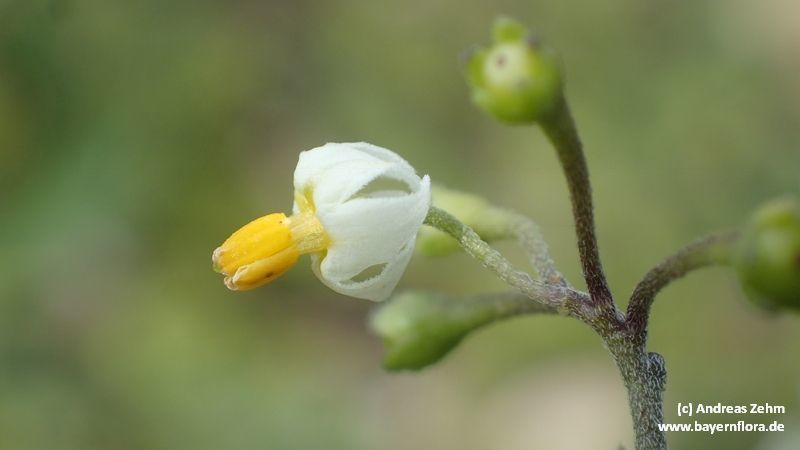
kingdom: Plantae
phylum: Tracheophyta
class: Magnoliopsida
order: Solanales
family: Solanaceae
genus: Solanum
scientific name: Solanum nigrum
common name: Black nightshade
